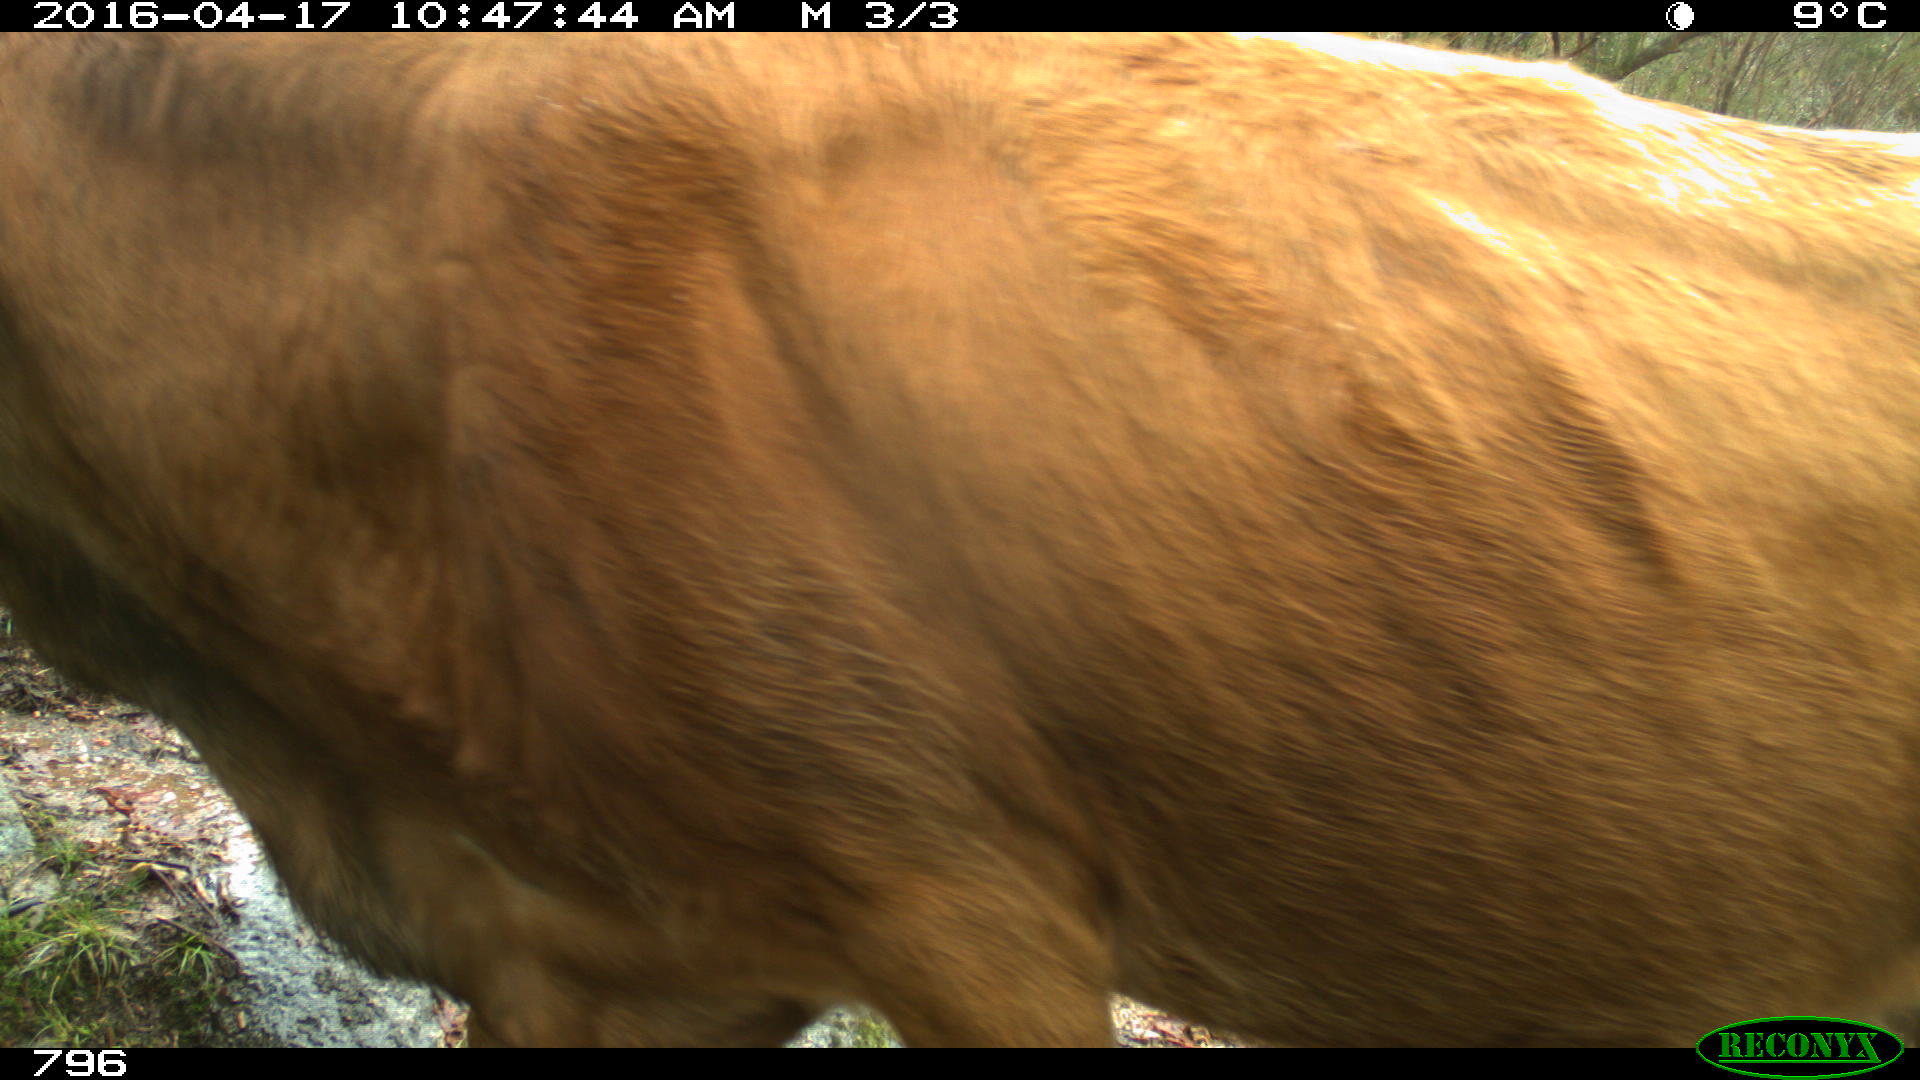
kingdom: Animalia
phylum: Chordata
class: Mammalia
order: Artiodactyla
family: Bovidae
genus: Bos
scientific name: Bos taurus
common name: Domesticated cattle
